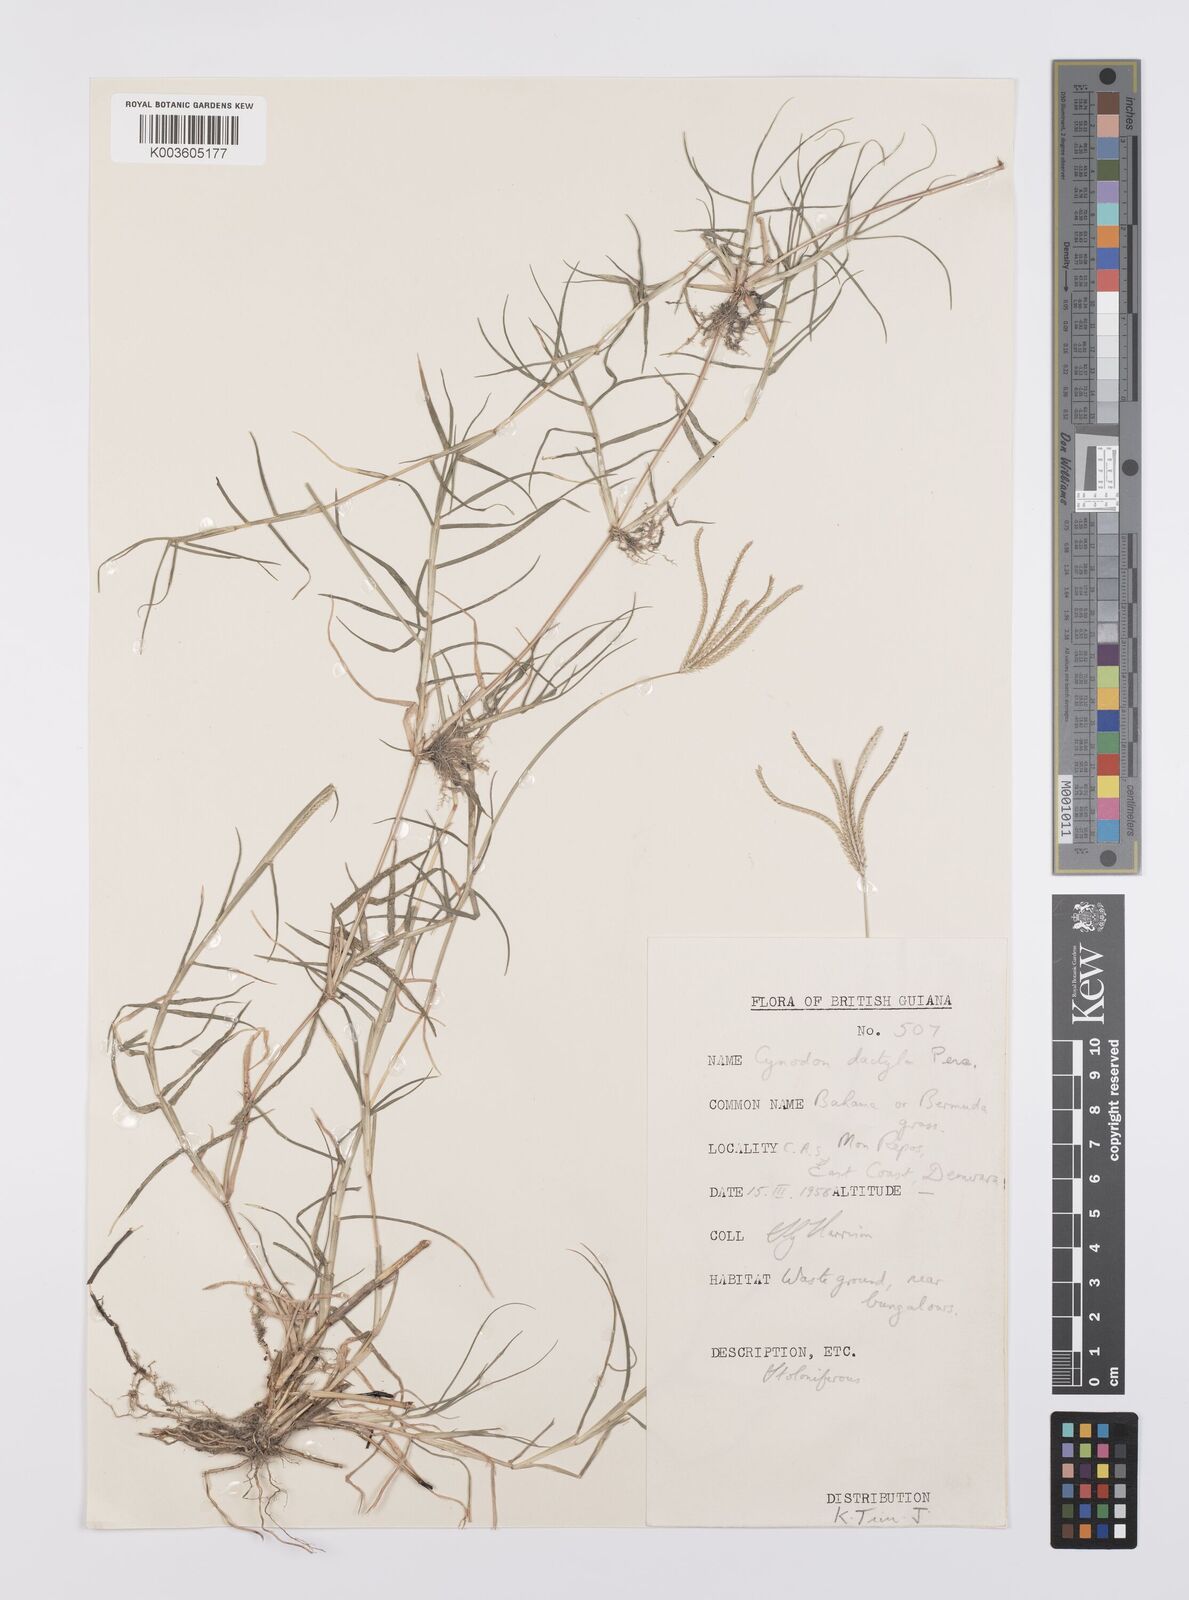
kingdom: Plantae
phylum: Tracheophyta
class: Liliopsida
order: Poales
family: Poaceae
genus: Cynodon
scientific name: Cynodon dactylon
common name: Bermuda grass
